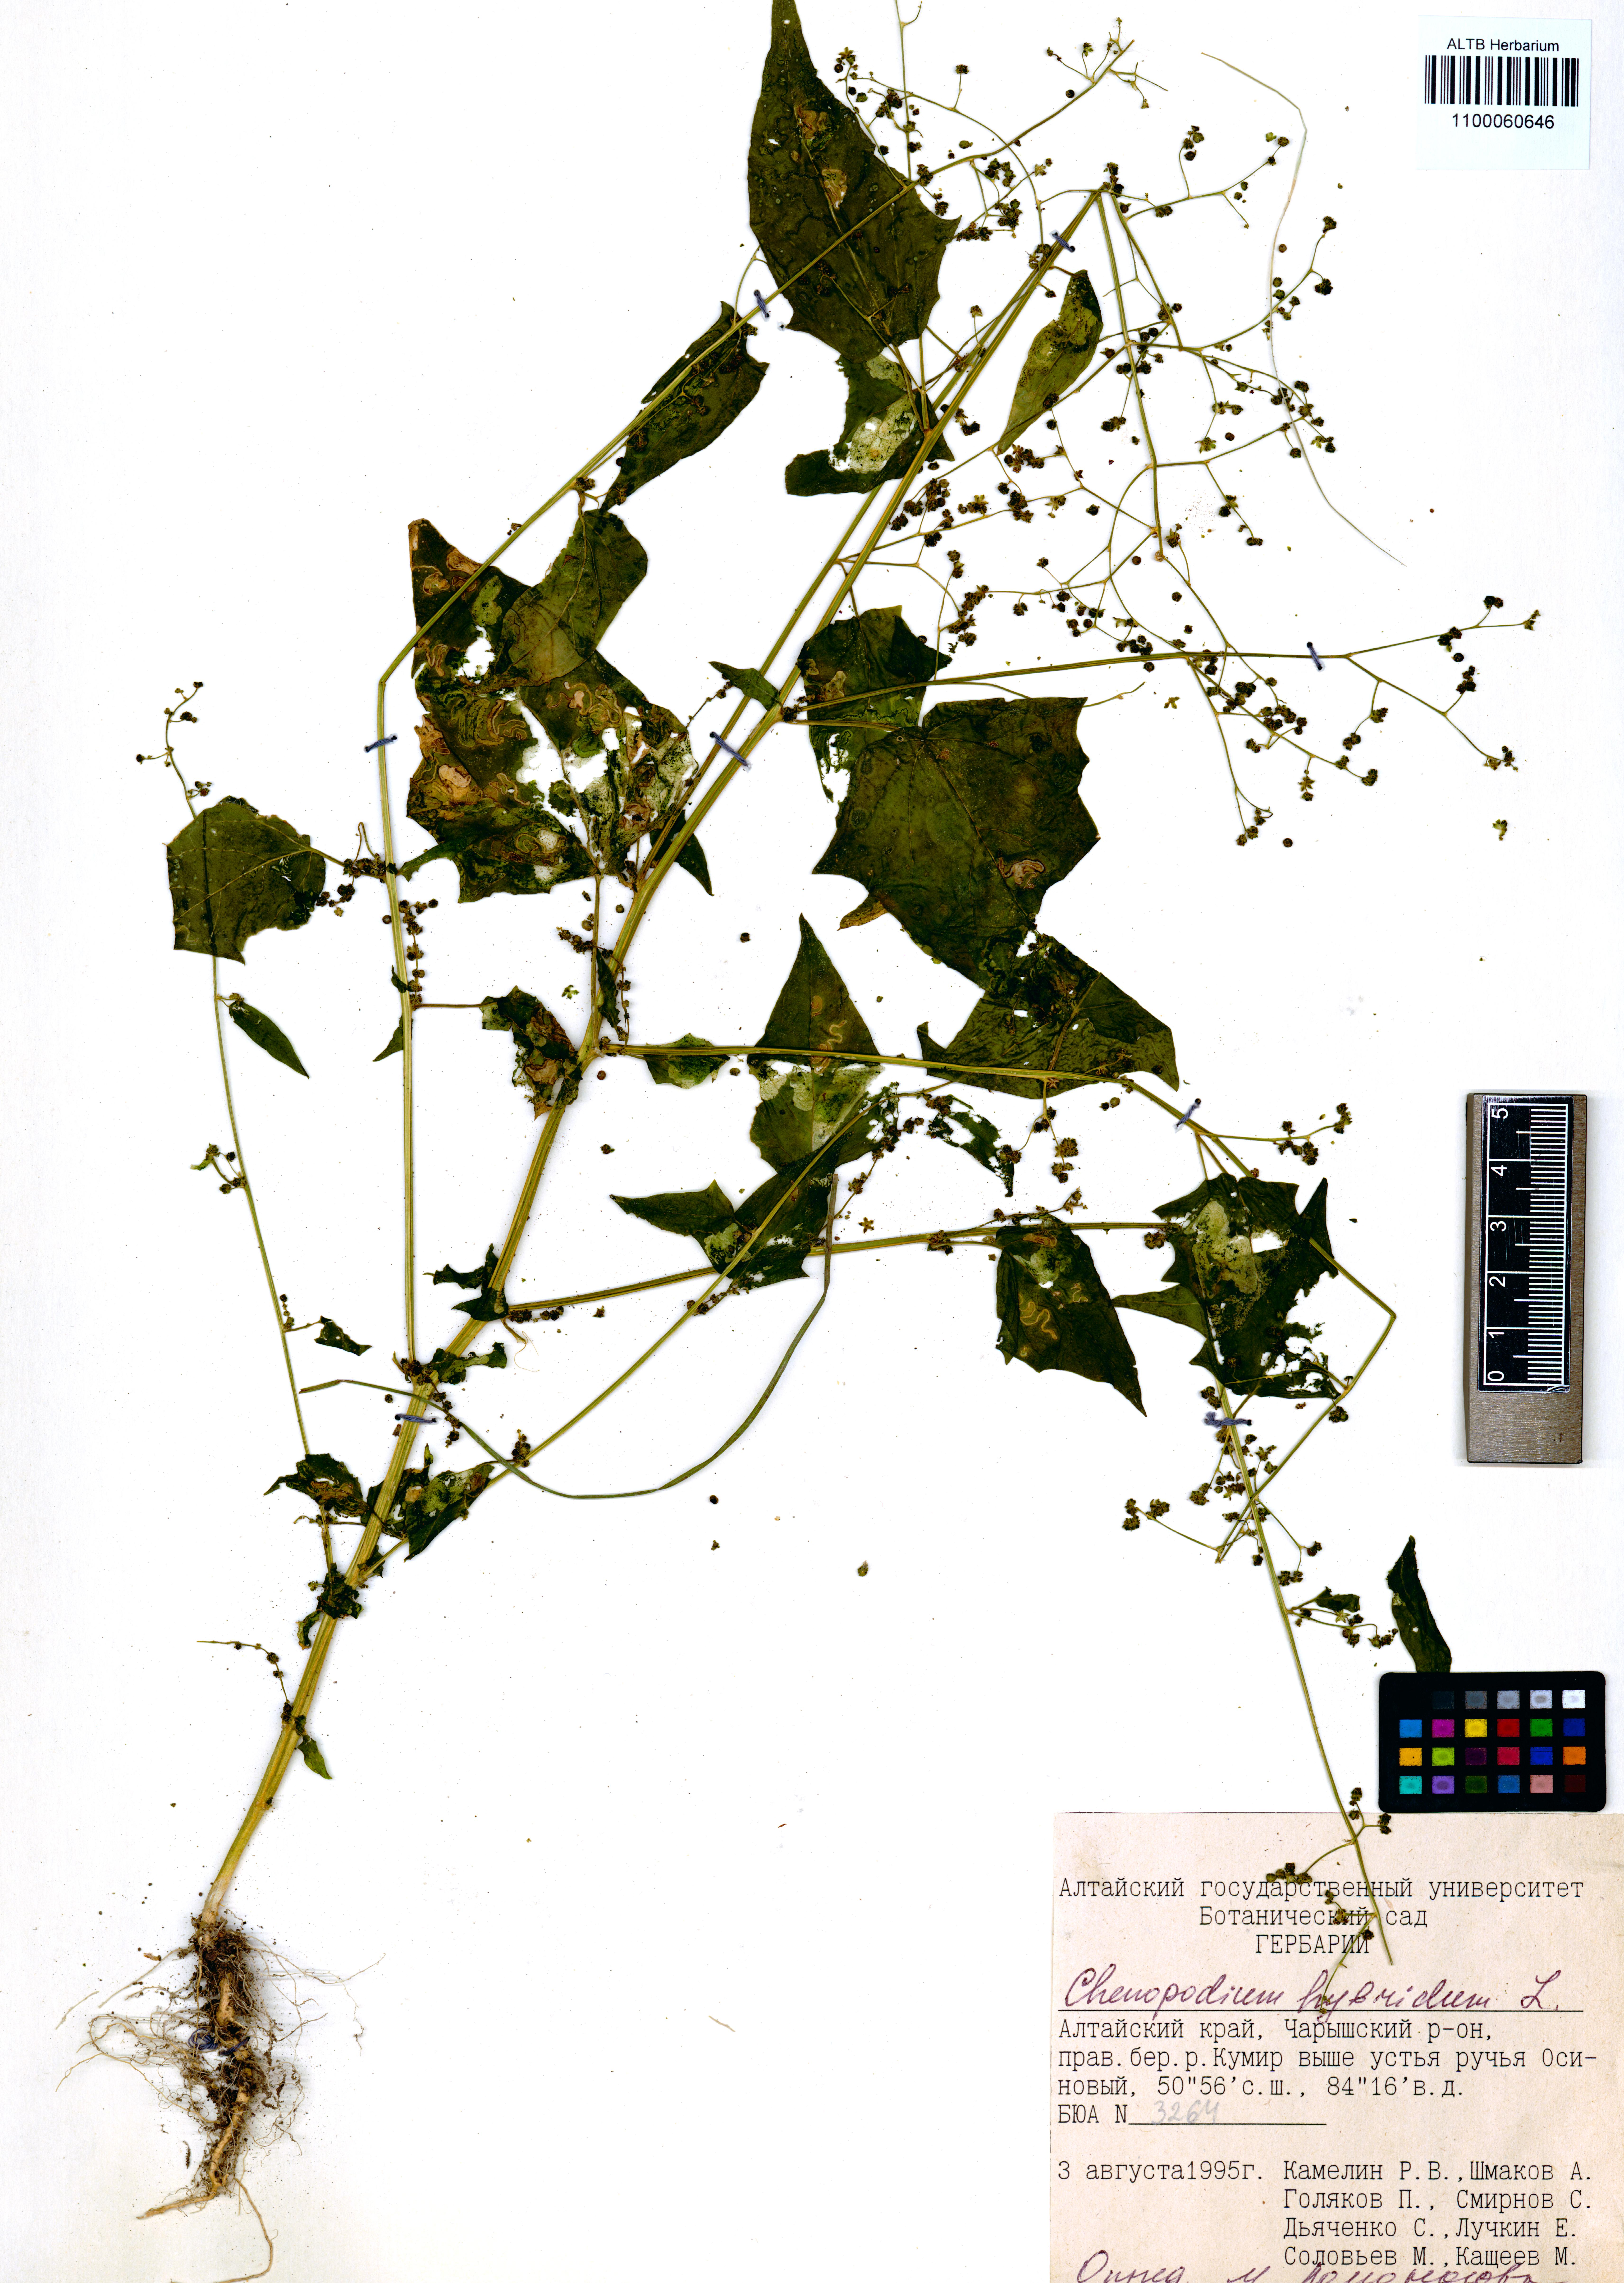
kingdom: Plantae
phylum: Tracheophyta
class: Magnoliopsida
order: Caryophyllales
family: Amaranthaceae
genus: Chenopodiastrum
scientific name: Chenopodiastrum hybridum
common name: Mapleleaf goosefoot
